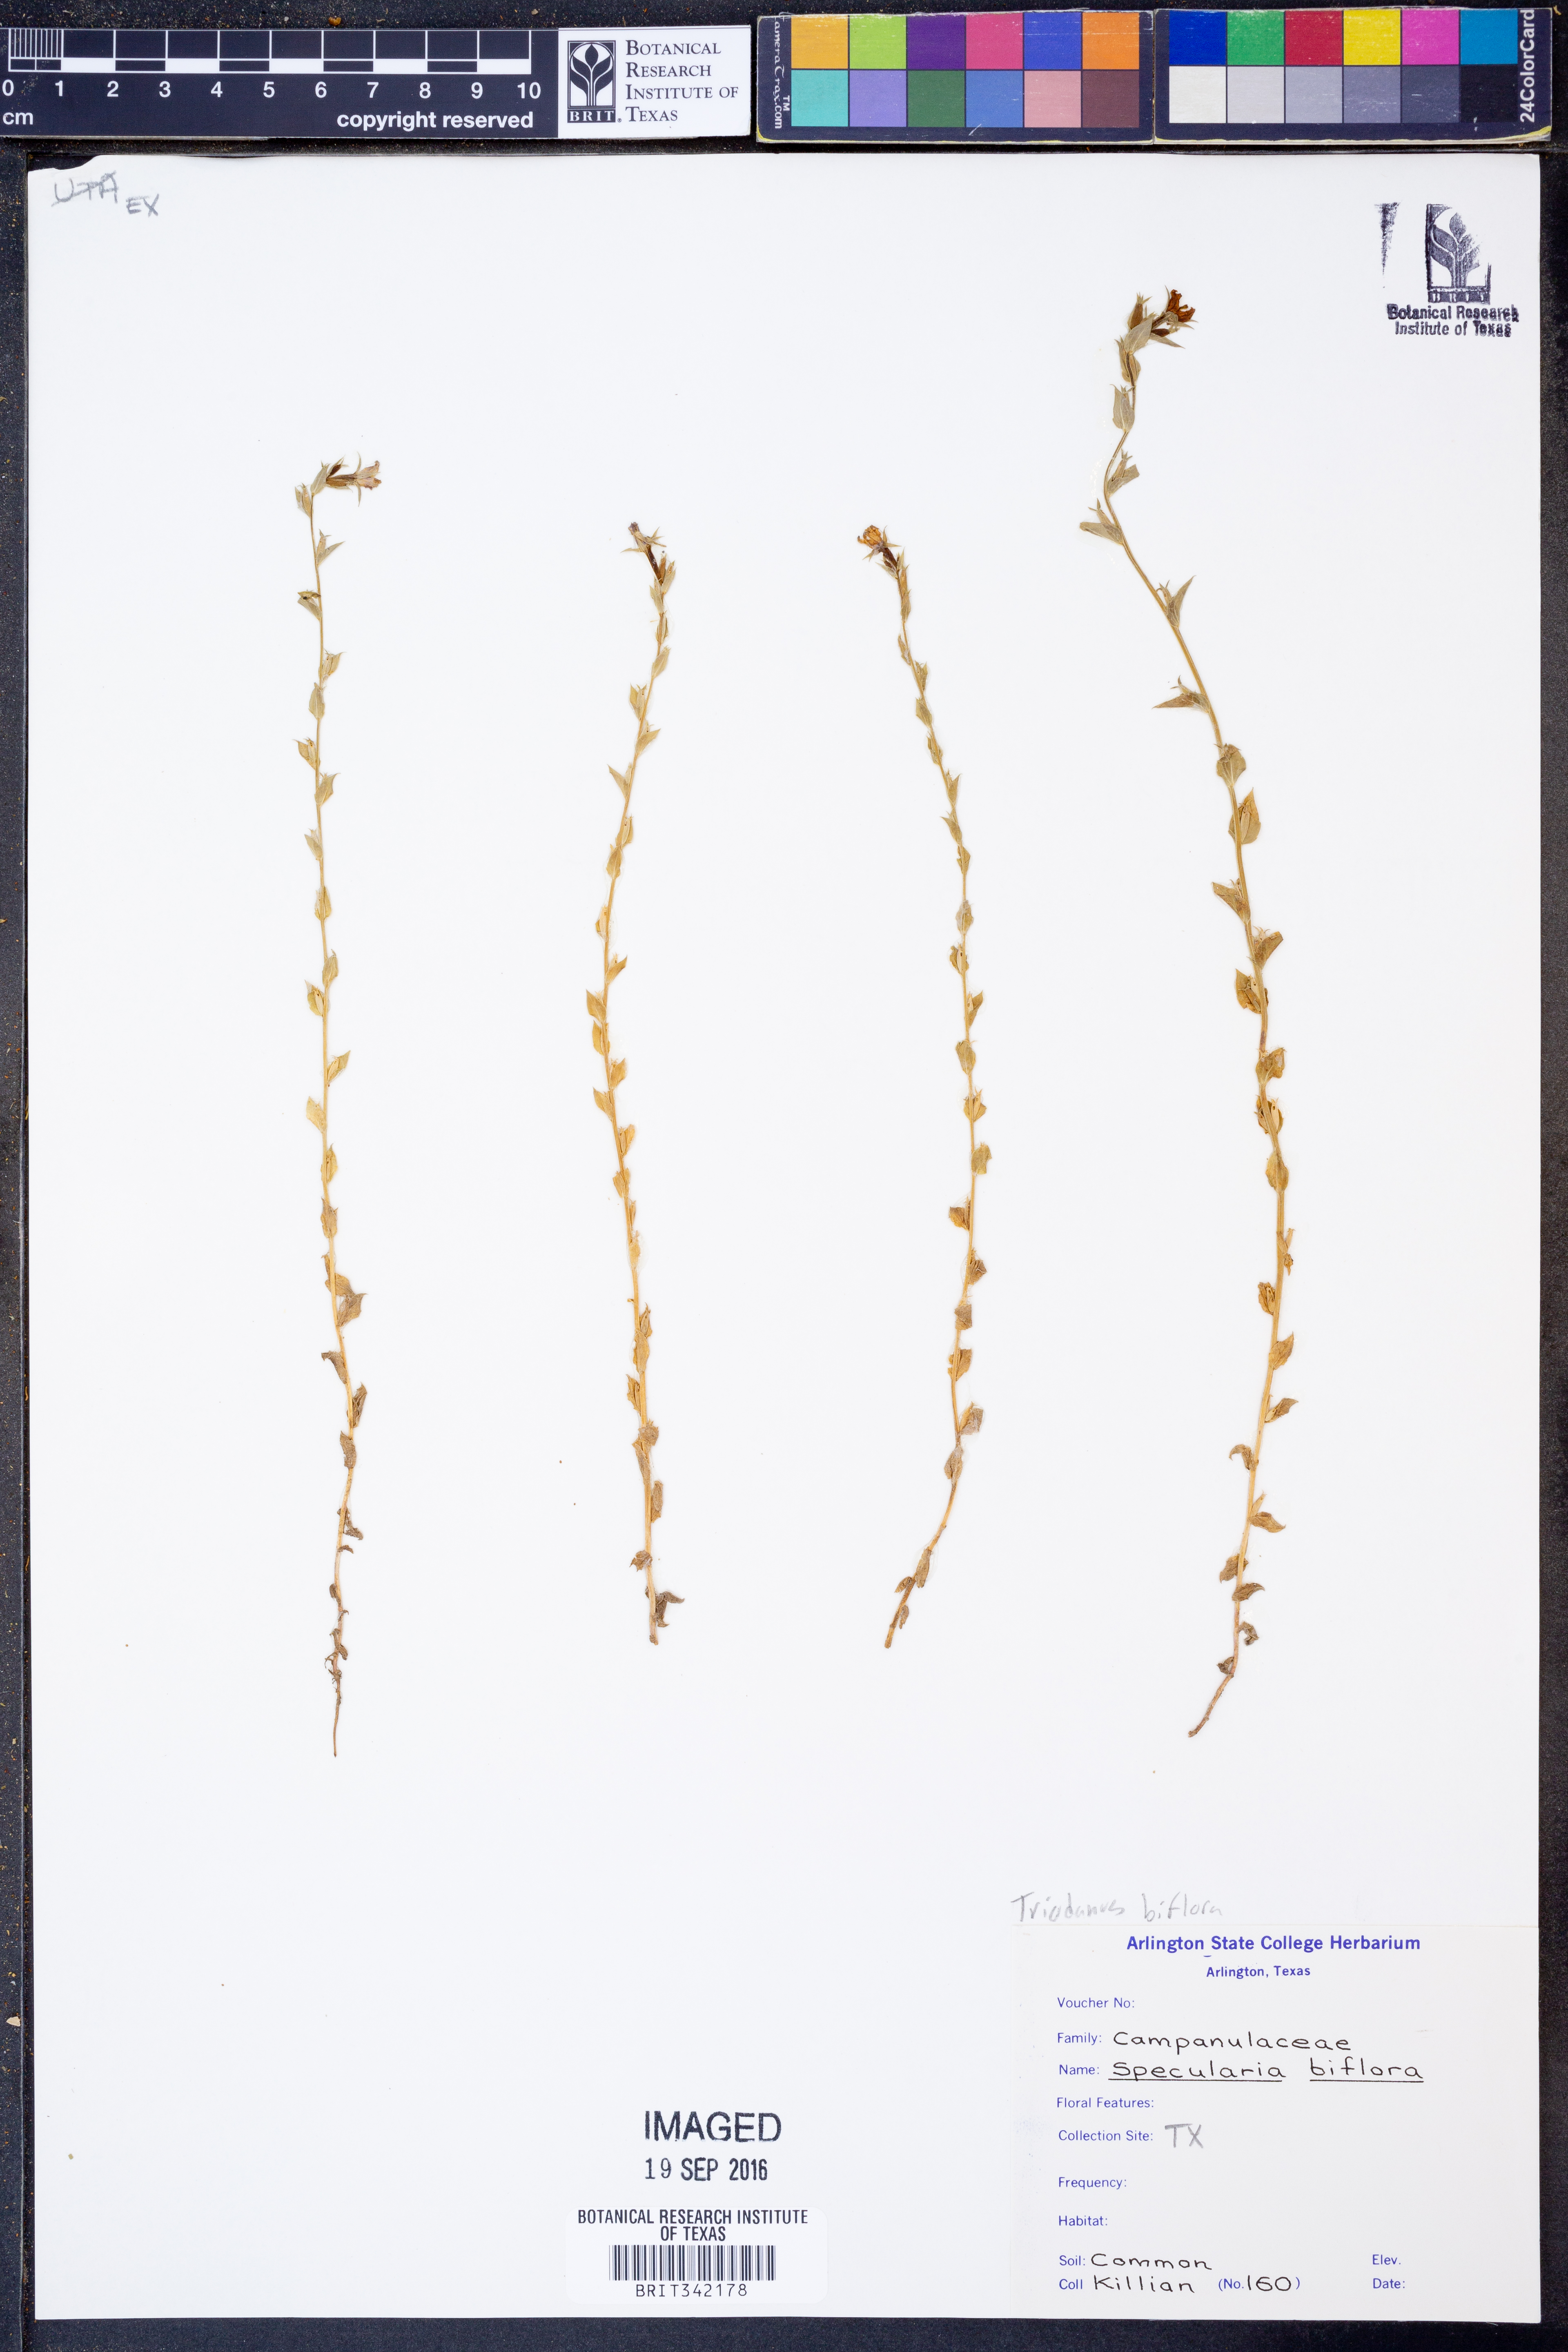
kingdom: Plantae
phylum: Tracheophyta
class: Magnoliopsida
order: Asterales
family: Campanulaceae
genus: Triodanis
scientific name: Triodanis perfoliata
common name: Clasping venus' looking-glass
